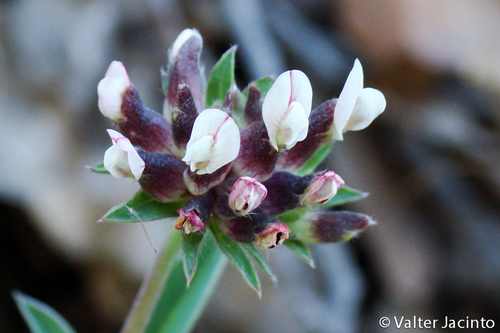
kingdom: Plantae
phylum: Tracheophyta
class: Magnoliopsida
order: Fabales
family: Fabaceae
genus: Anthyllis
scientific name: Anthyllis vulneraria
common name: Kidney vetch
